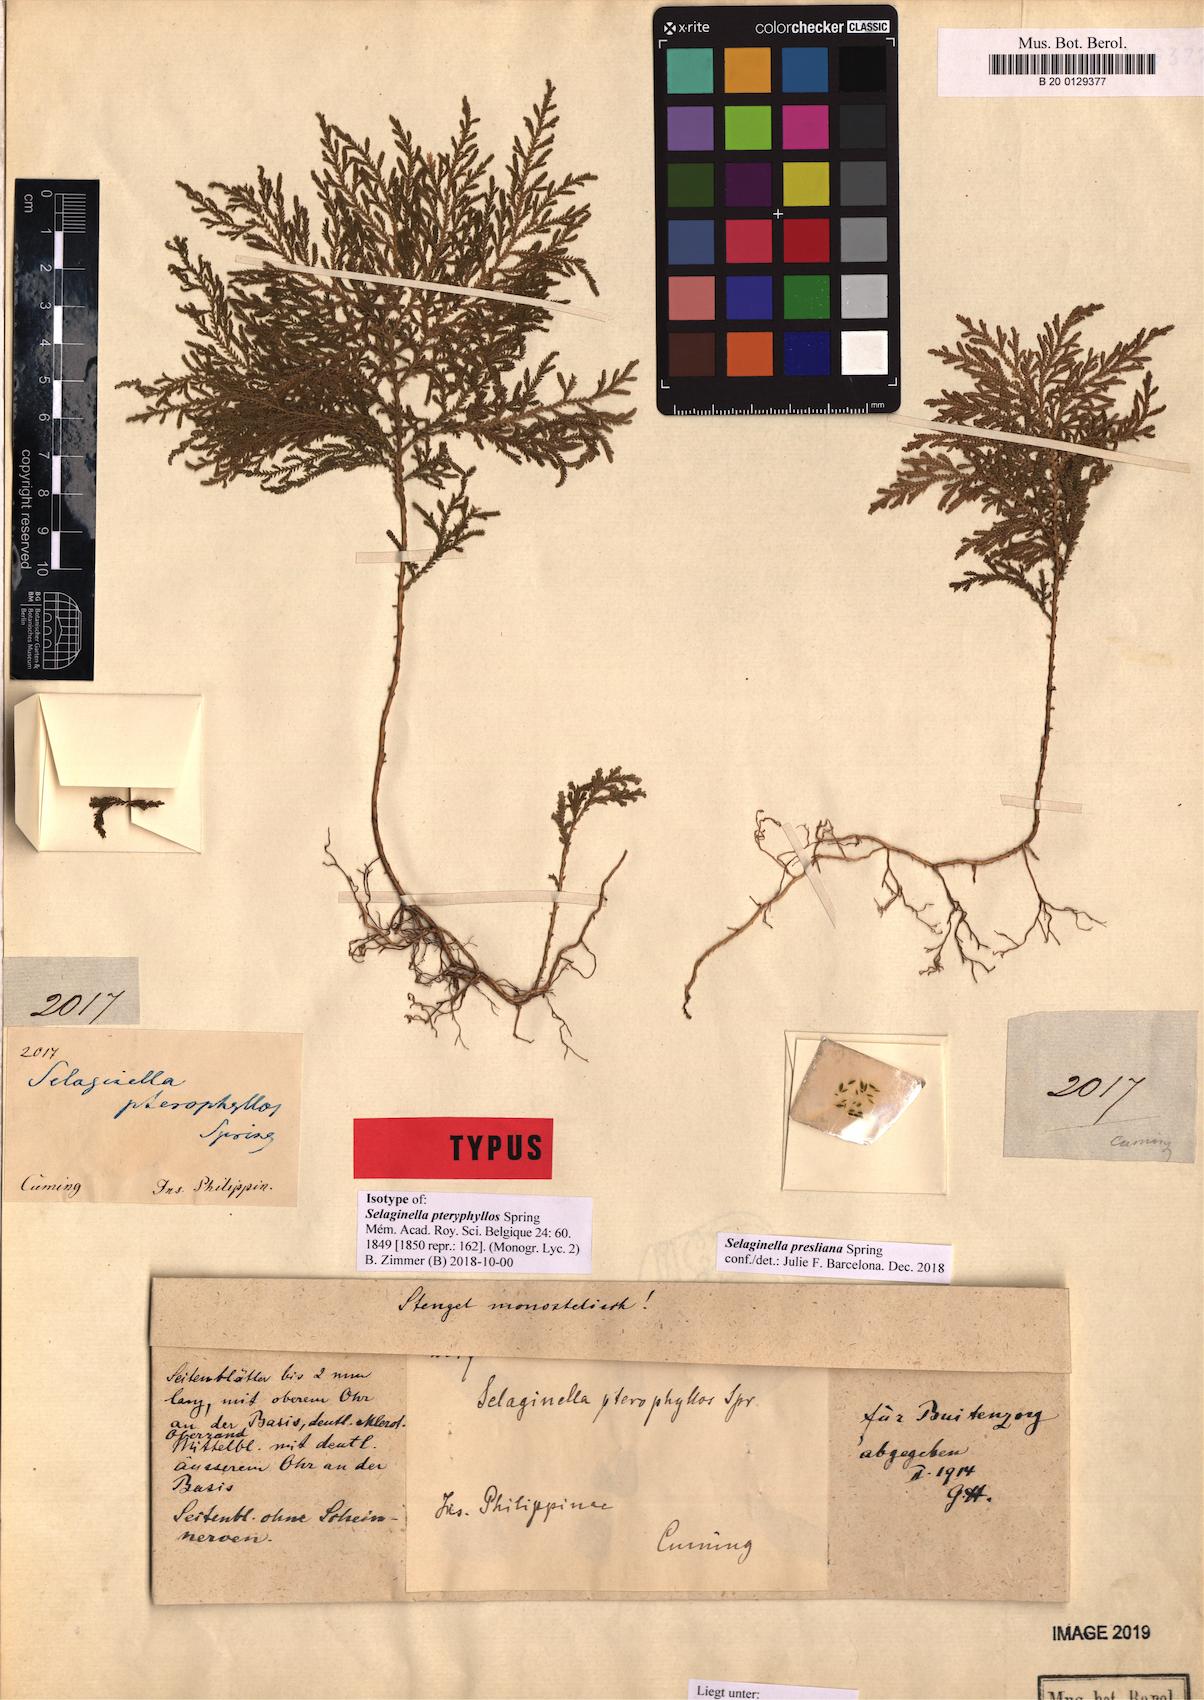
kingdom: Plantae
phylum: Tracheophyta
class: Lycopodiopsida
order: Selaginellales
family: Selaginellaceae
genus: Selaginella
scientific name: Selaginella presliana
